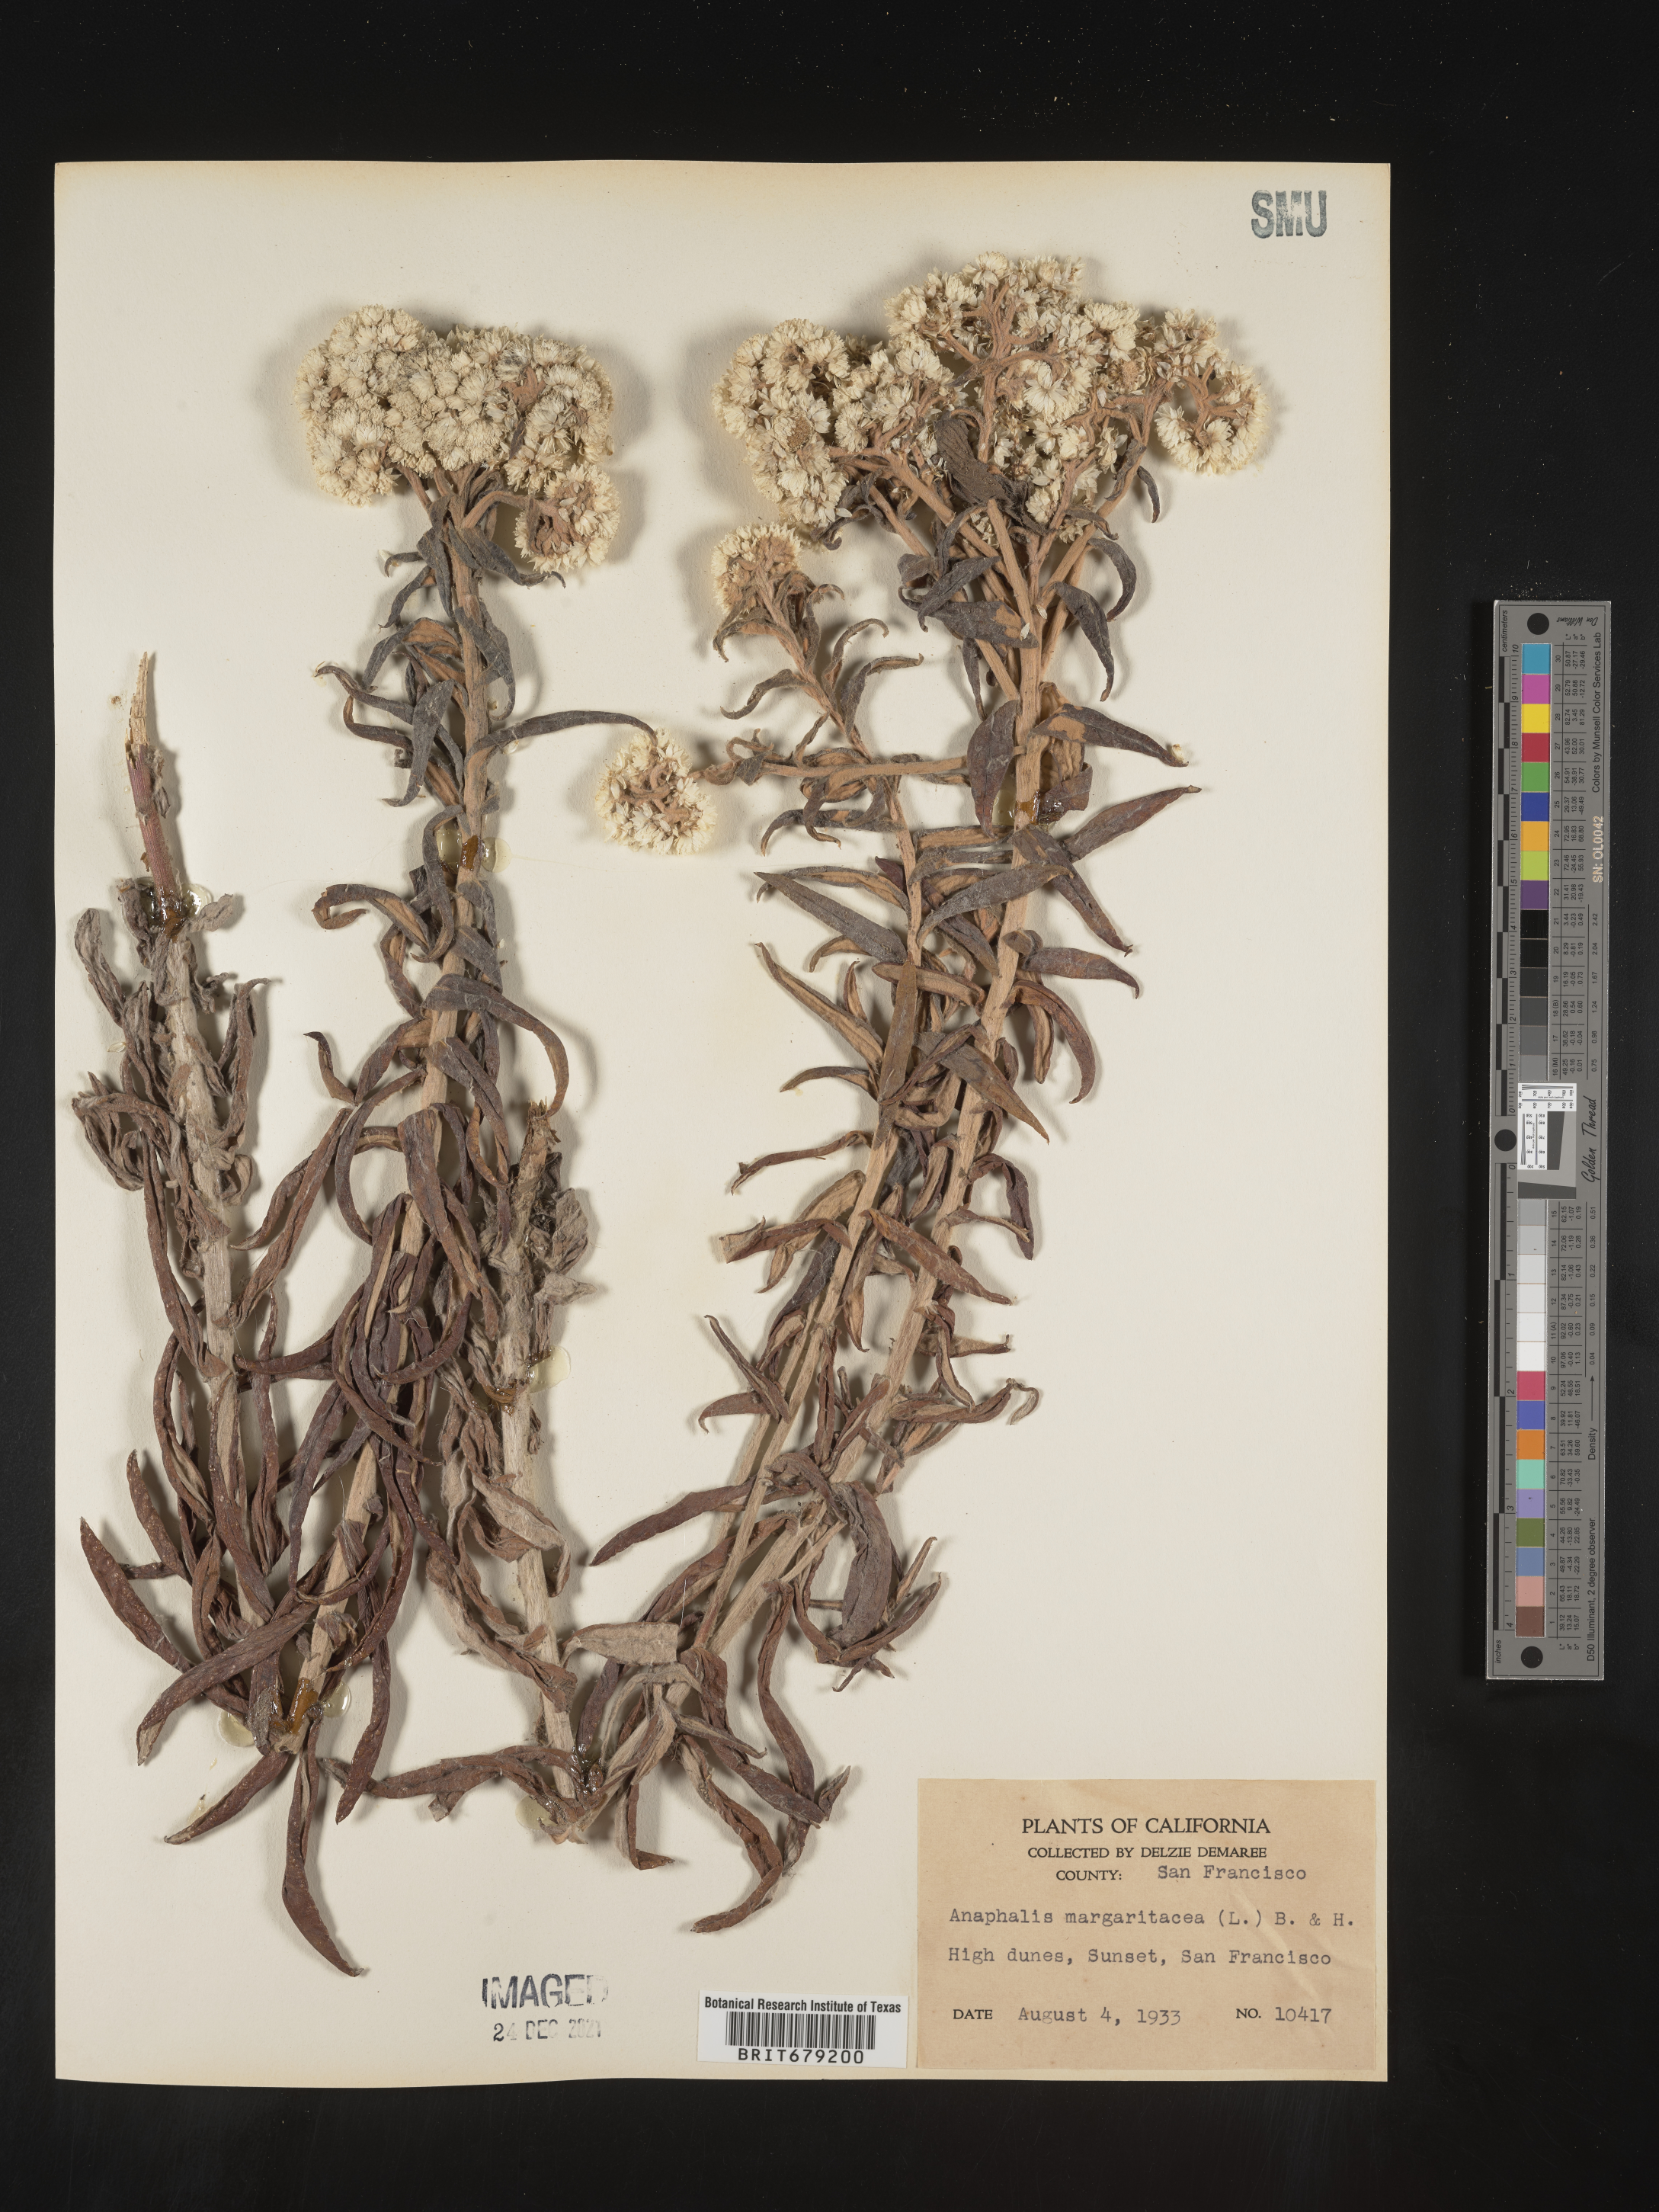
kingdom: Plantae
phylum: Tracheophyta
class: Magnoliopsida
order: Asterales
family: Asteraceae
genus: Anaphalis
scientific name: Anaphalis margaritacea
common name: Pearly everlasting
